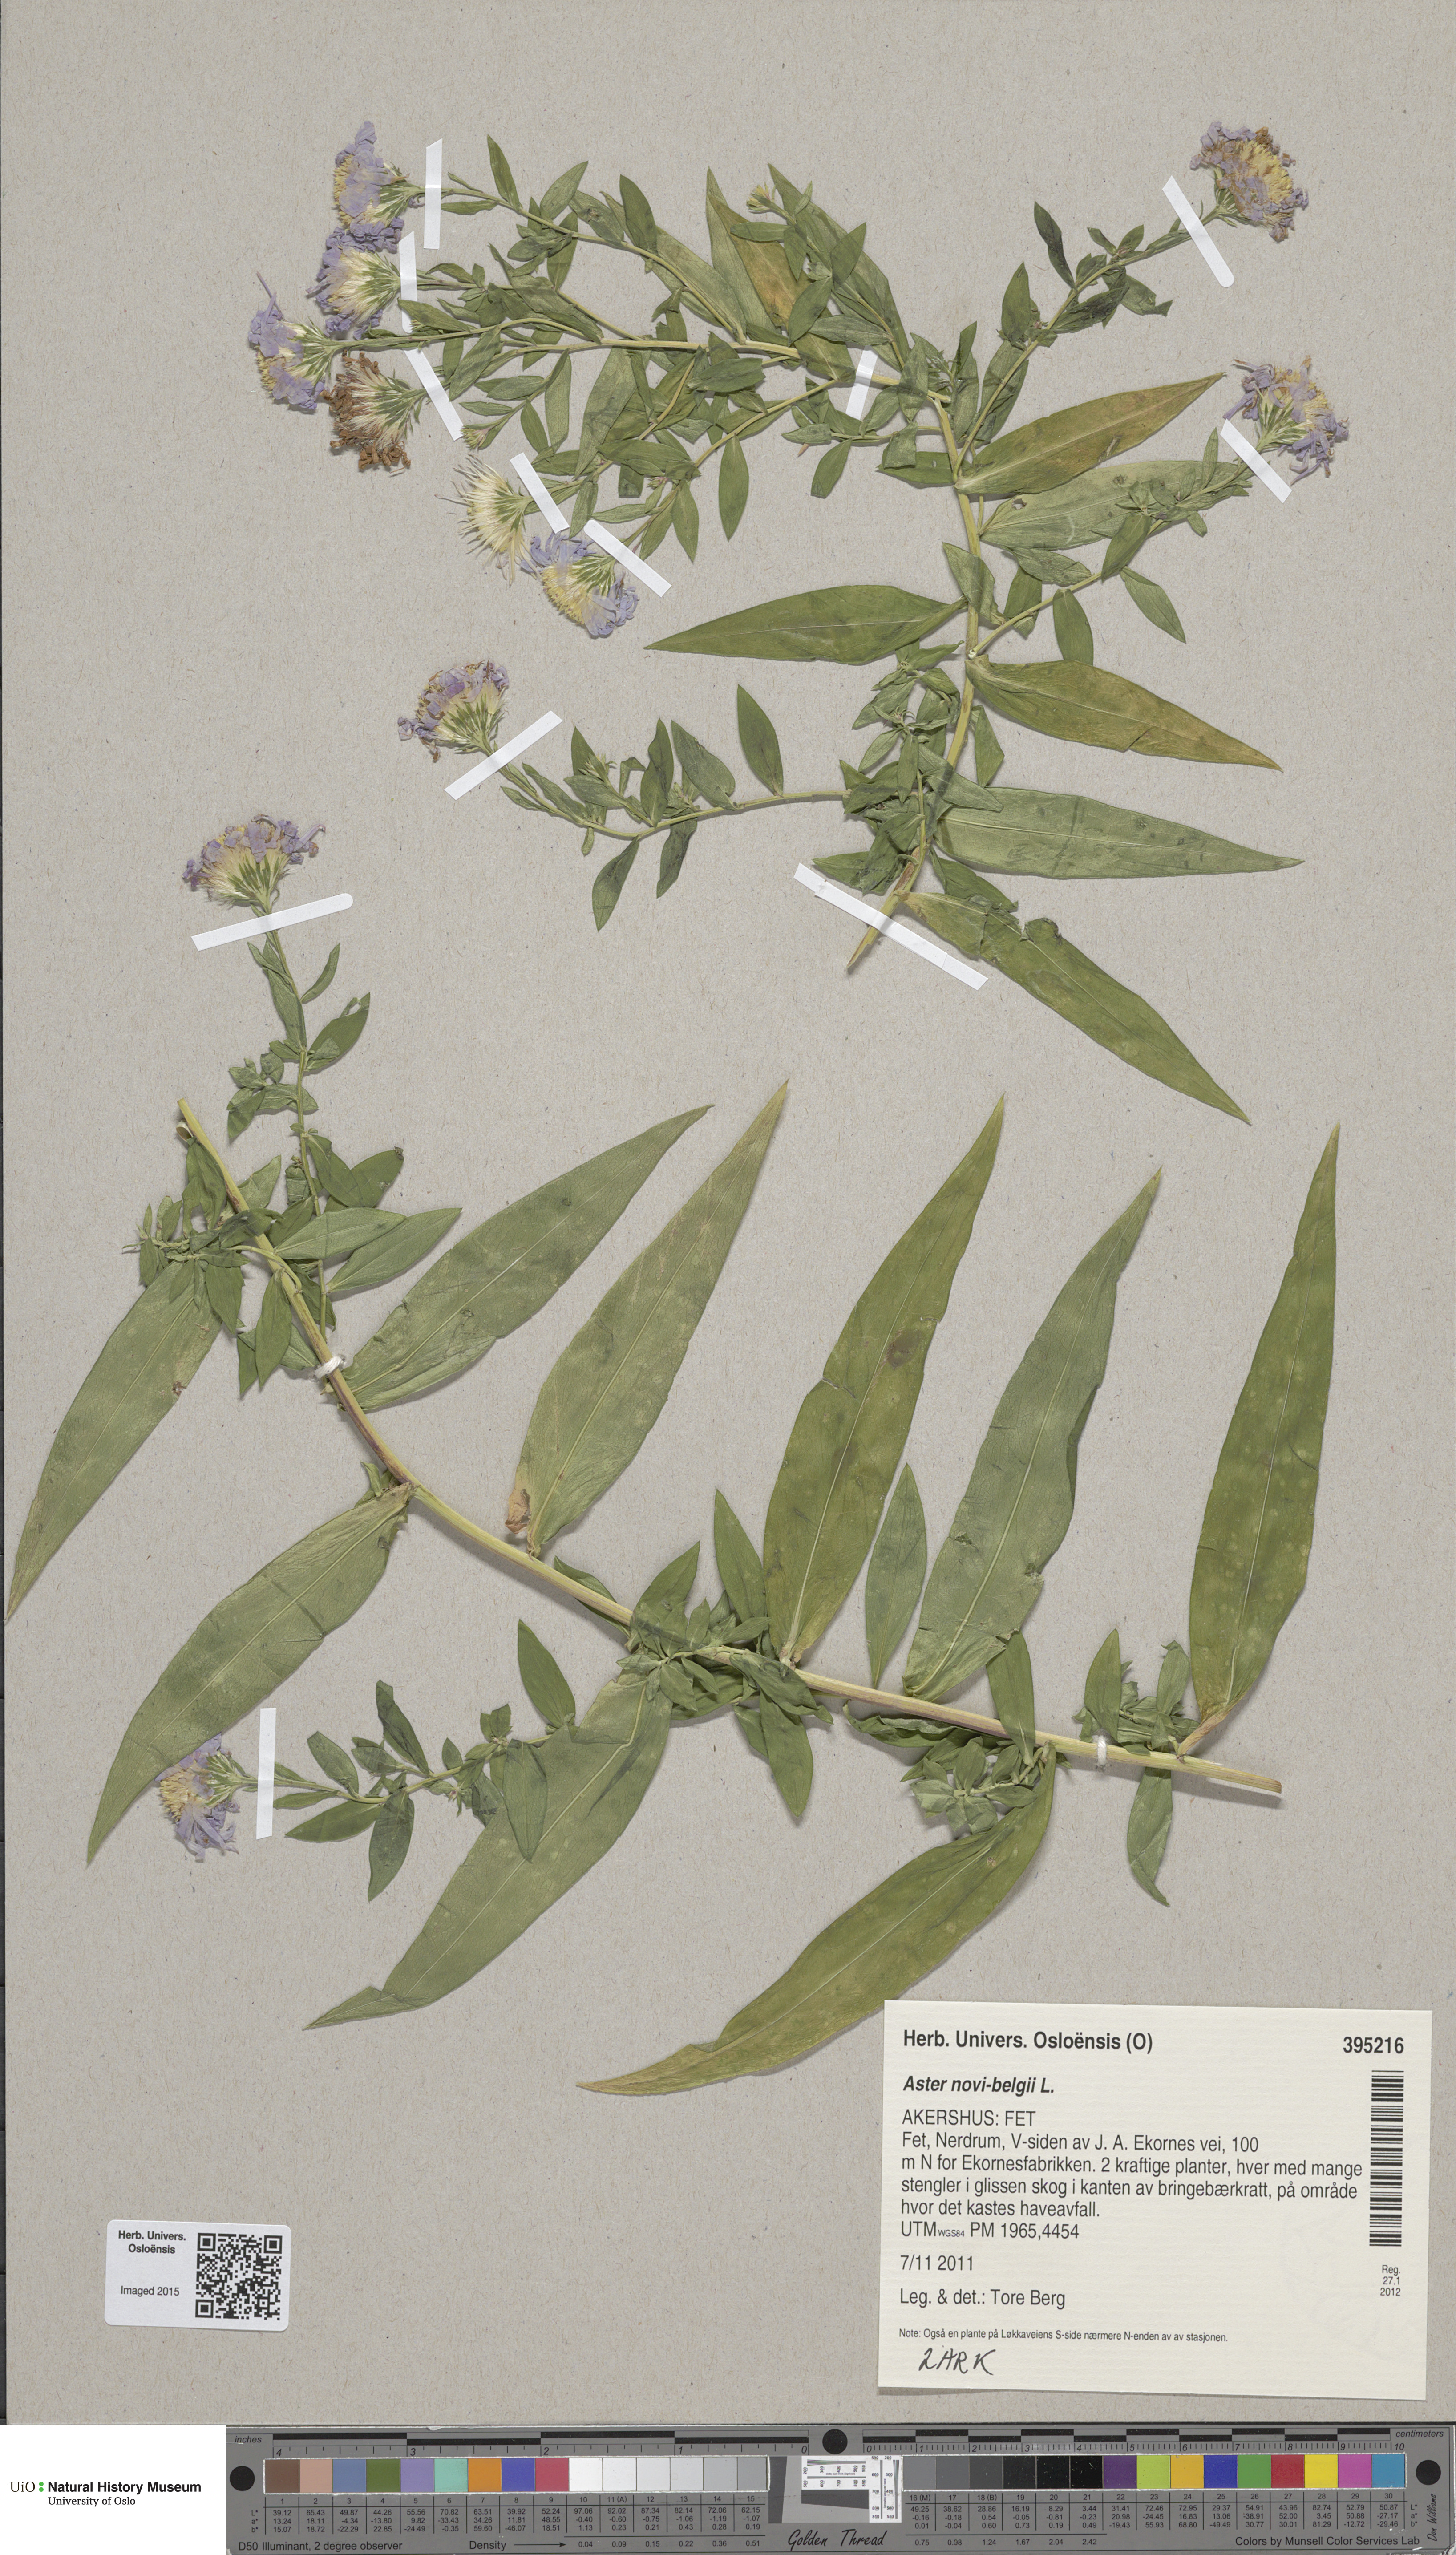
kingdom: Plantae
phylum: Tracheophyta
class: Magnoliopsida
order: Asterales
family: Asteraceae
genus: Symphyotrichum
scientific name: Symphyotrichum salignum
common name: Common michaelmas daisy
